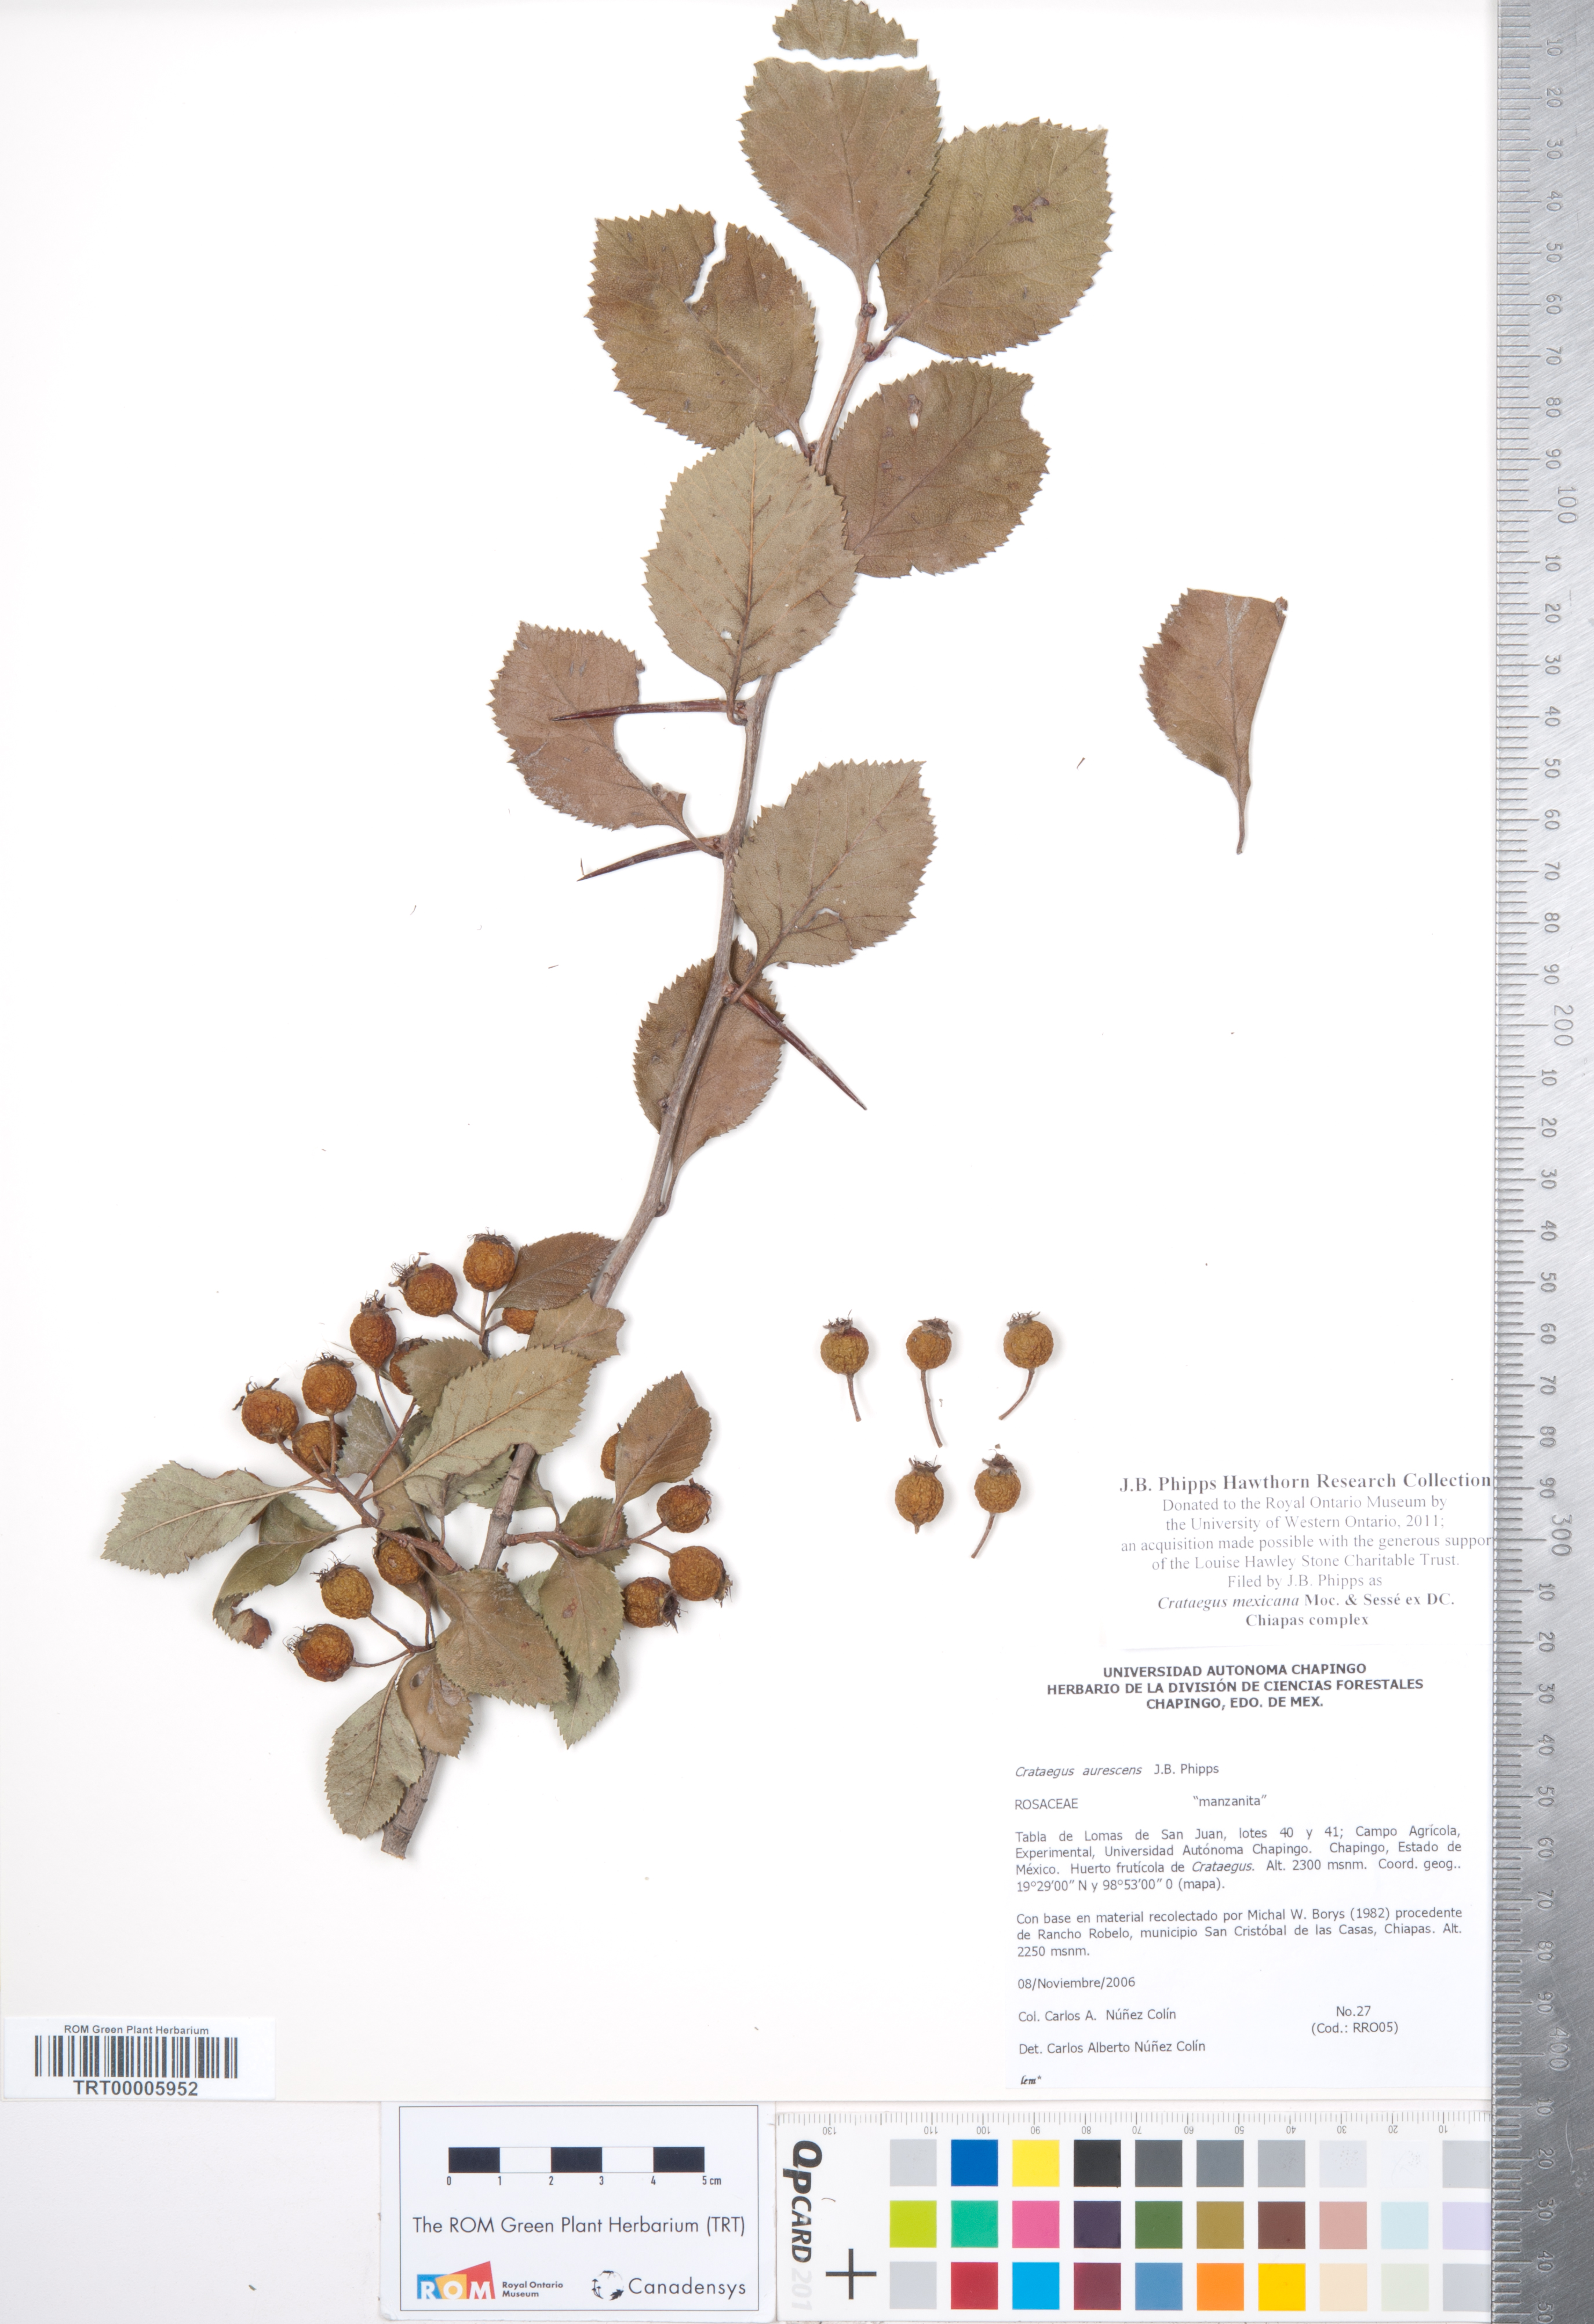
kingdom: Plantae
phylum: Tracheophyta
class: Magnoliopsida
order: Rosales
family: Rosaceae
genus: Crataegus
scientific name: Crataegus mexicana
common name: Mexican hawthorn
